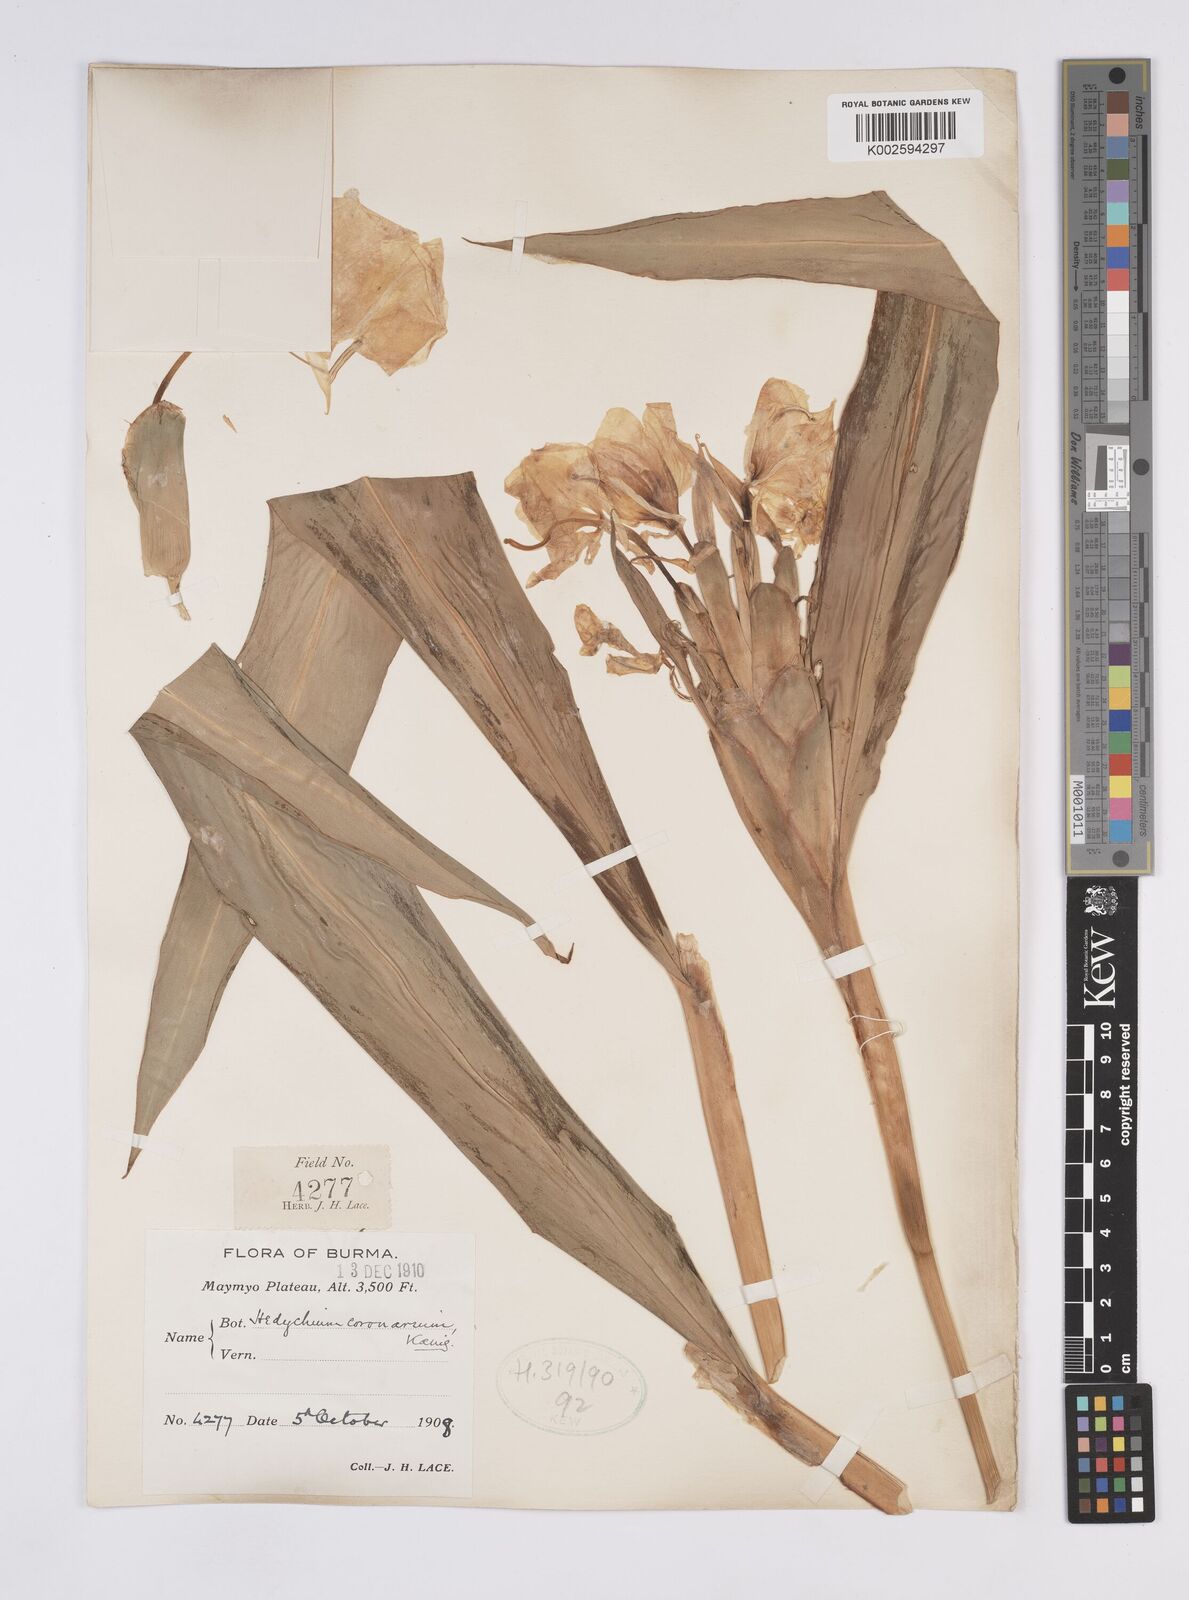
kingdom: Plantae
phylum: Tracheophyta
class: Liliopsida
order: Zingiberales
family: Zingiberaceae
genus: Hedychium
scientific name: Hedychium coronarium
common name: White garland-lily
